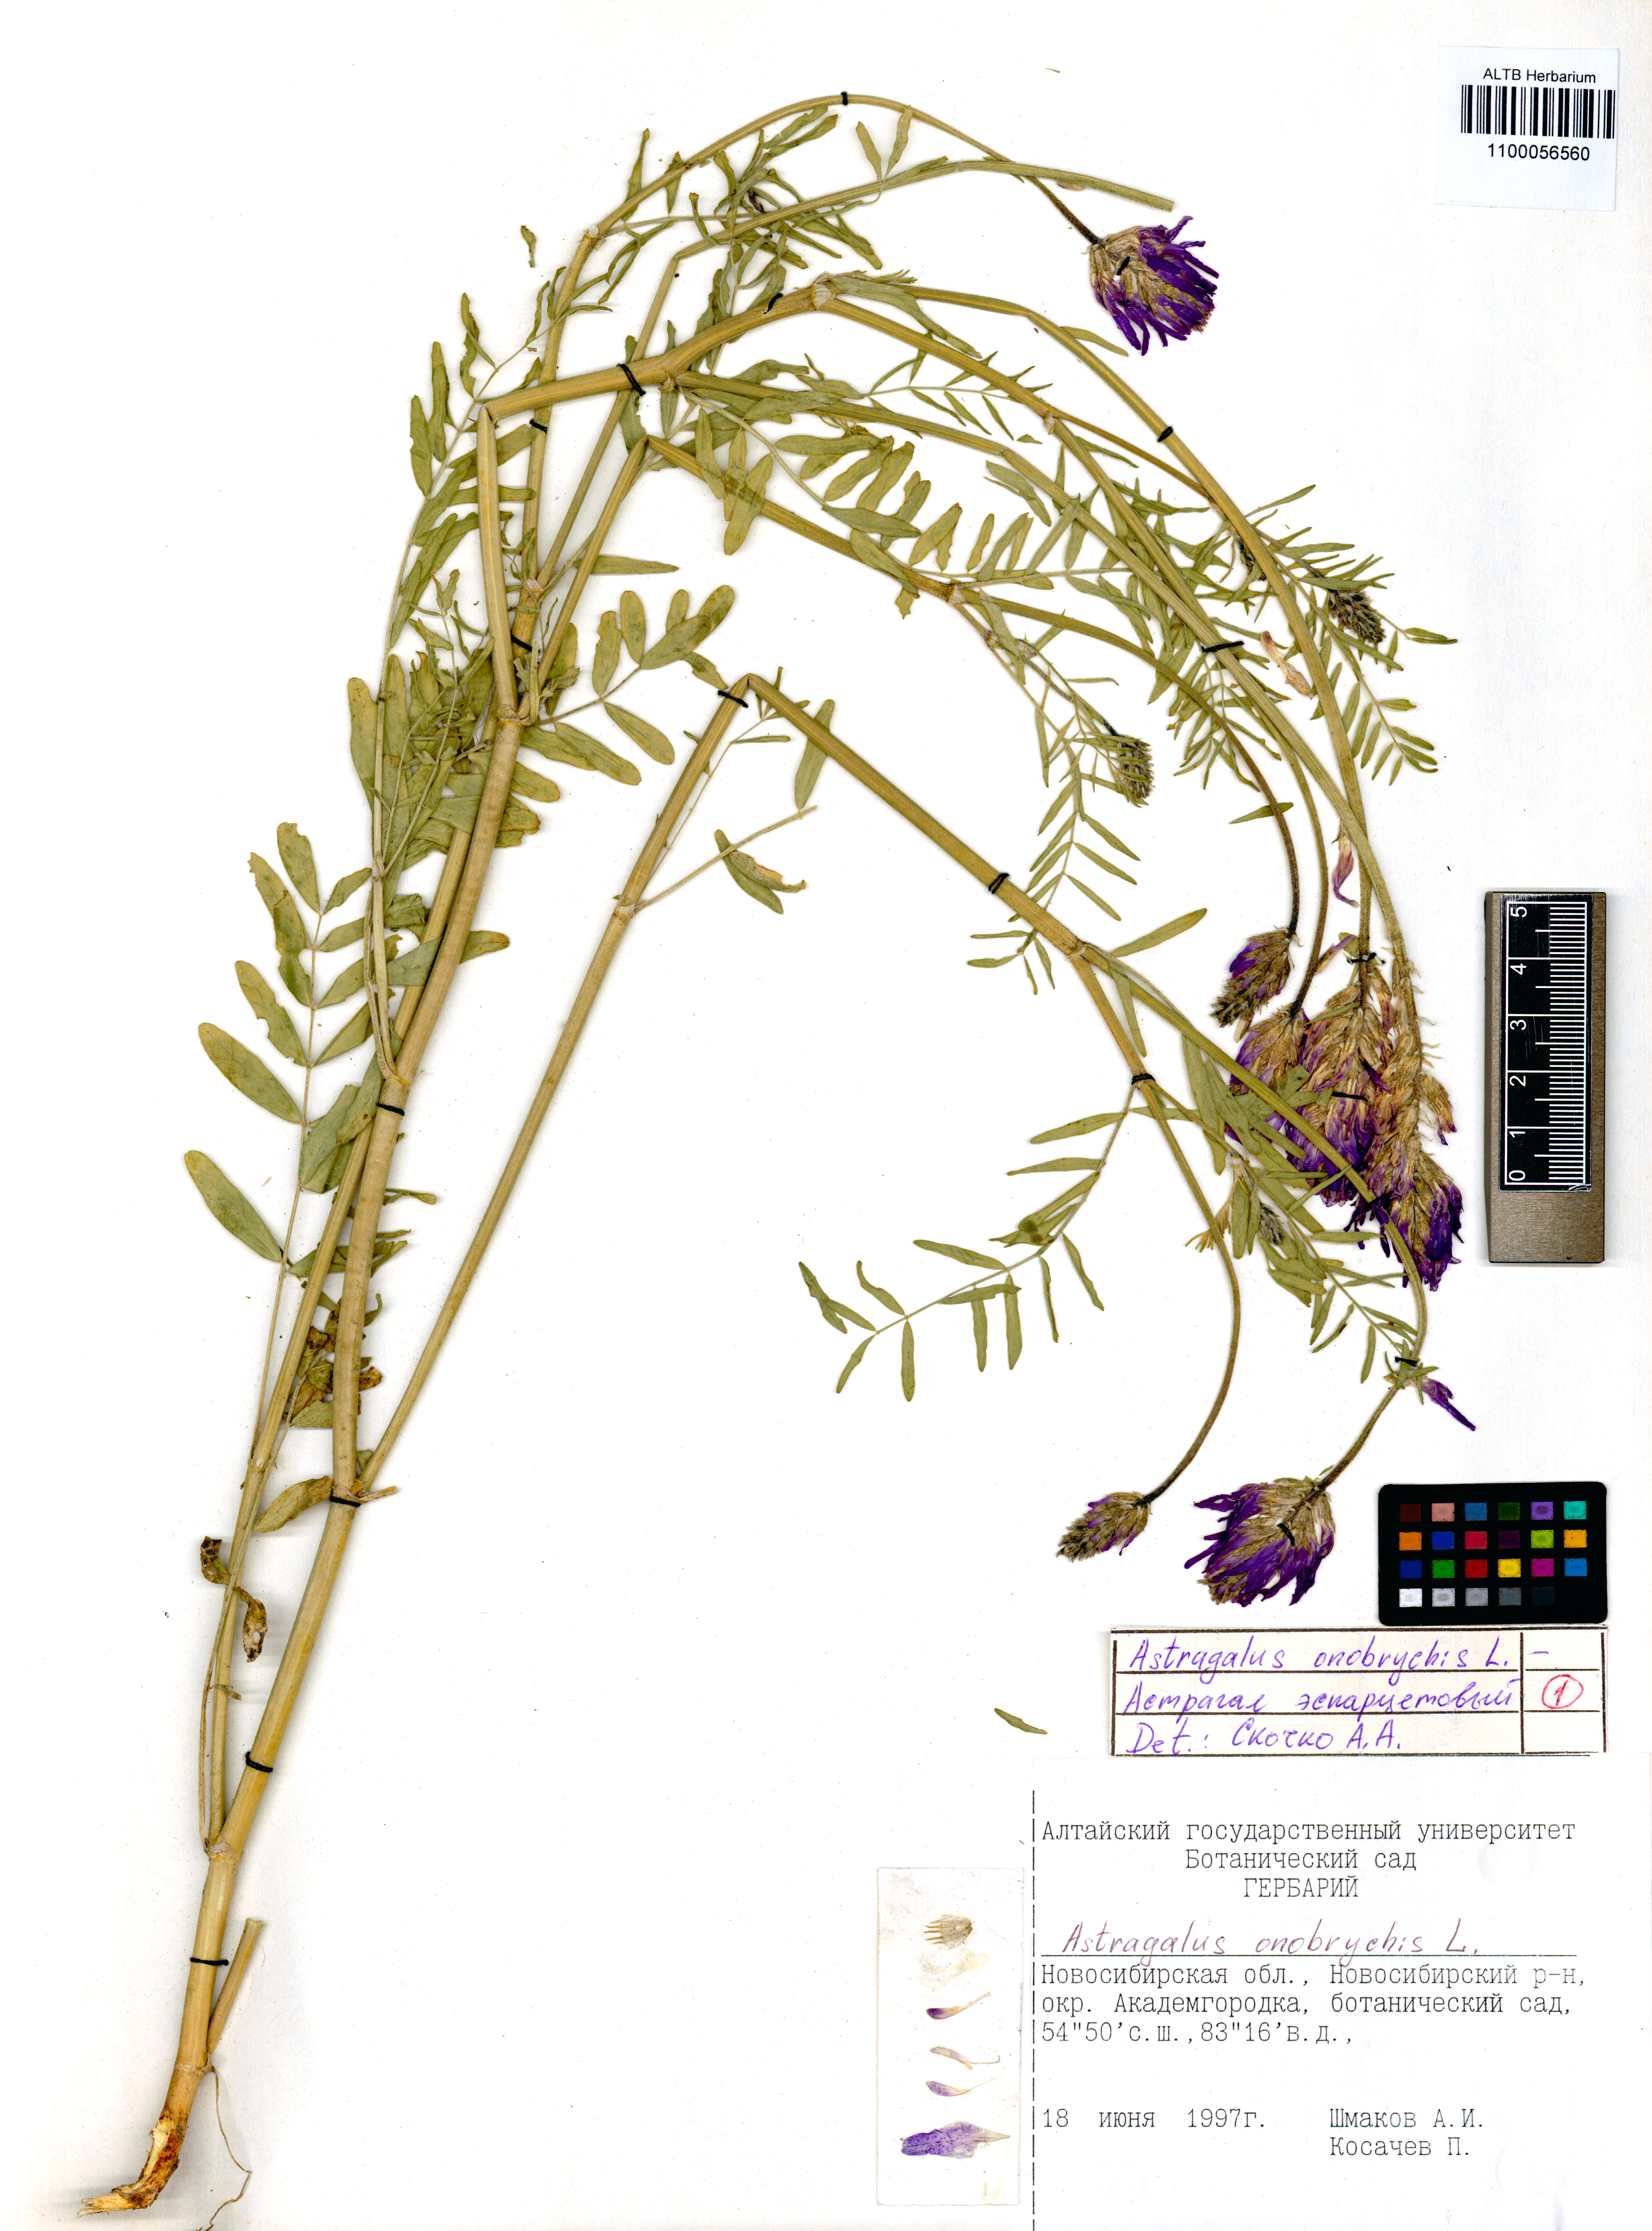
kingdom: Plantae
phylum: Tracheophyta
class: Magnoliopsida
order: Fabales
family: Fabaceae
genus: Astragalus
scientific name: Astragalus onobrychis
